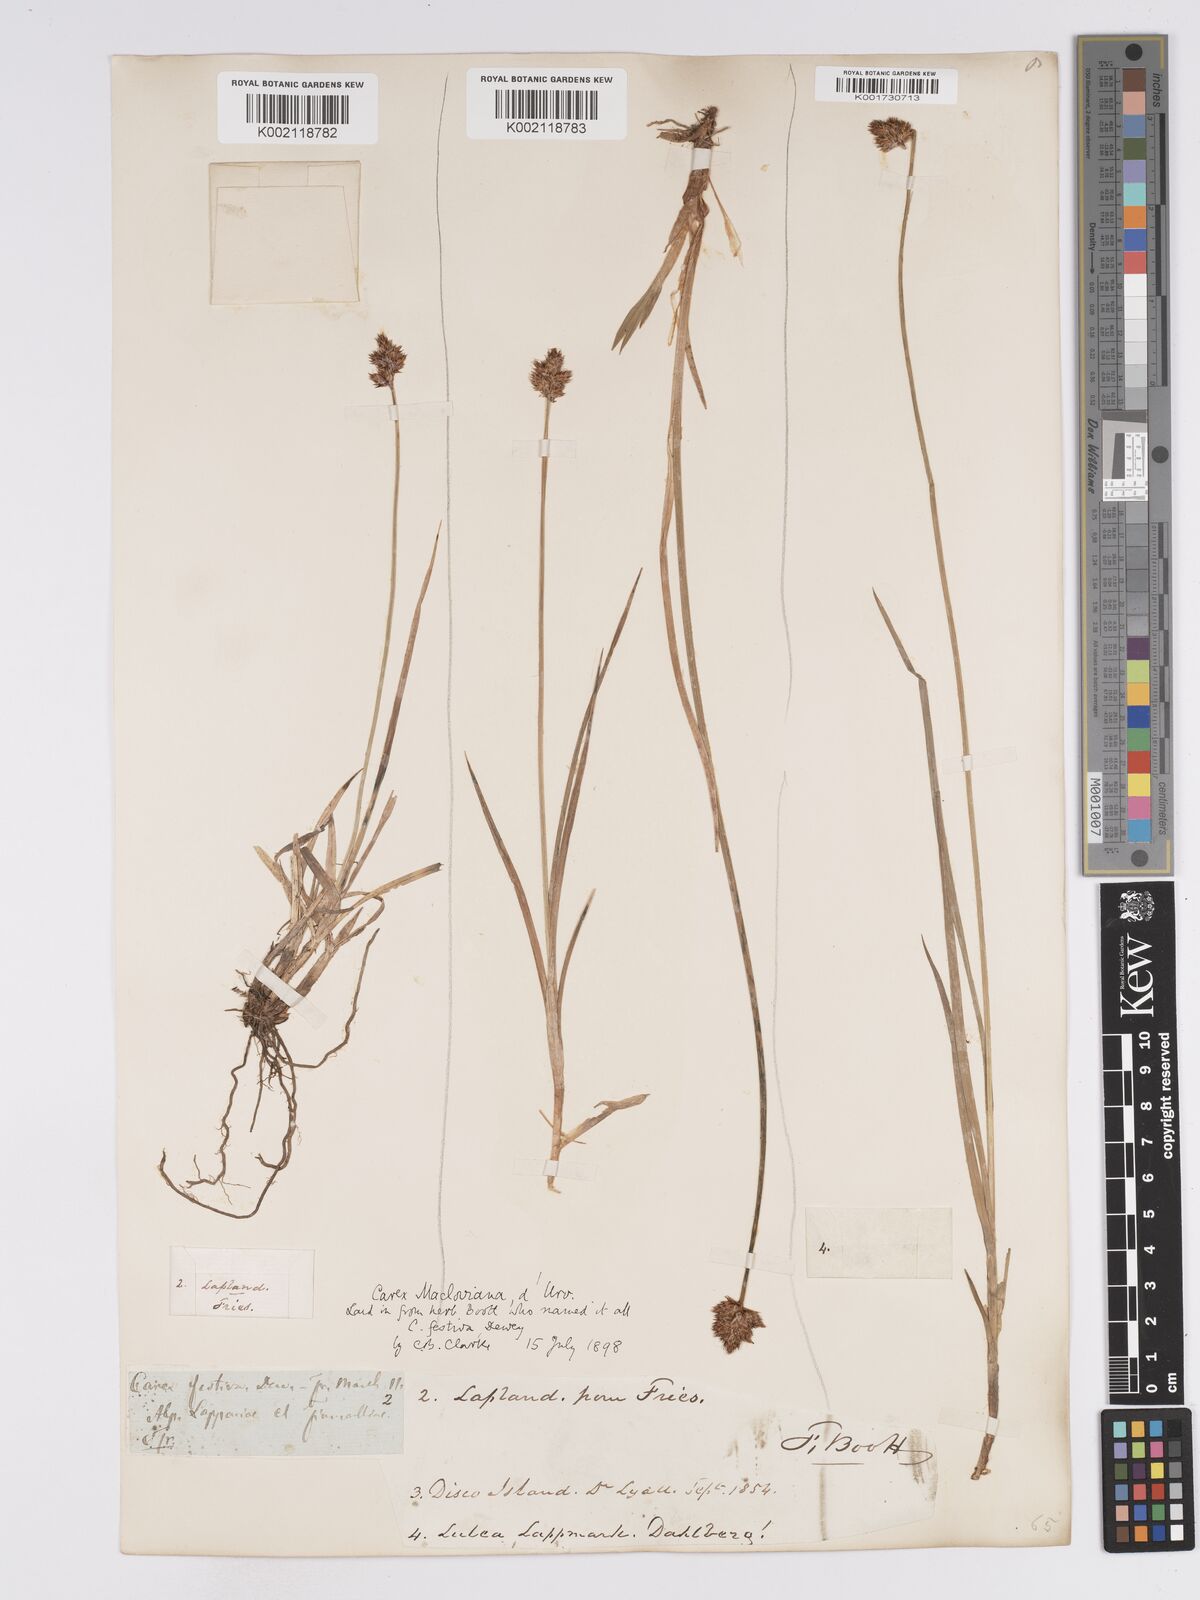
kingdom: Plantae
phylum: Tracheophyta
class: Liliopsida
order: Poales
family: Cyperaceae
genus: Carex
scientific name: Carex macloviana
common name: Falkland island sedge
